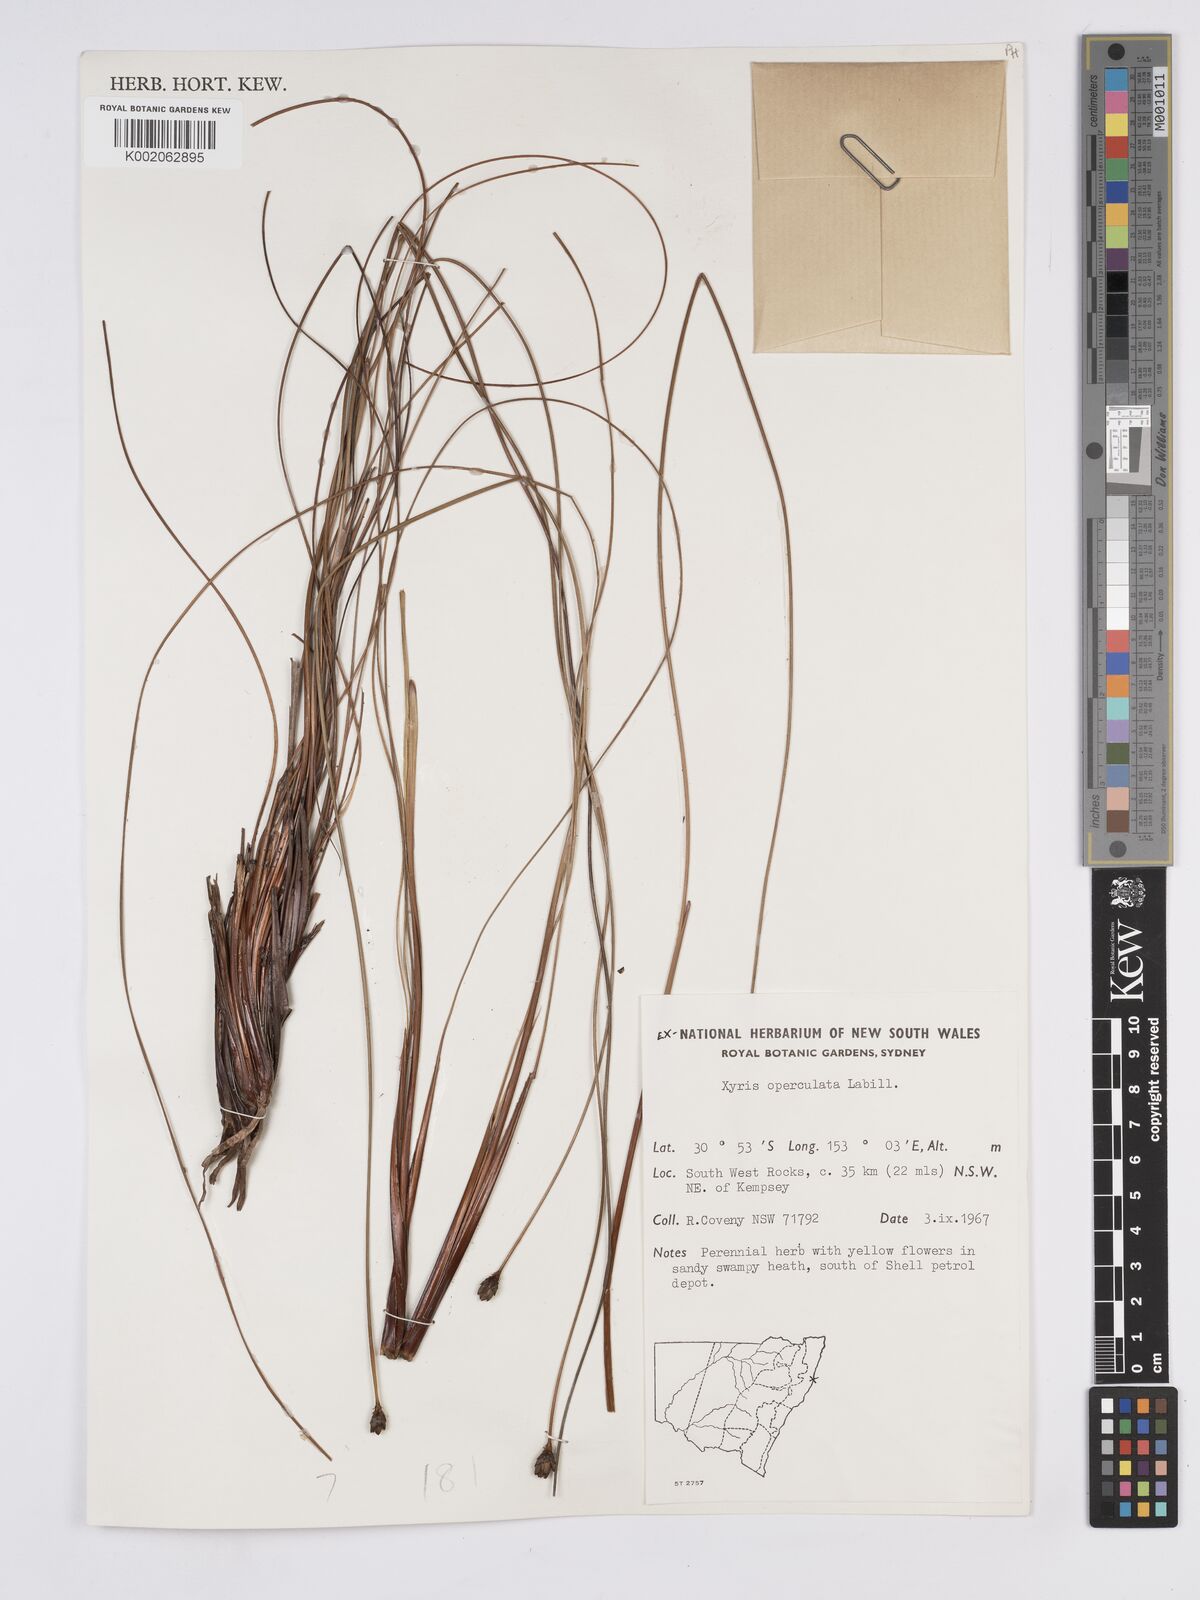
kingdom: Plantae
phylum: Tracheophyta
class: Liliopsida
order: Poales
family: Xyridaceae
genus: Xyris
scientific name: Xyris operculata
